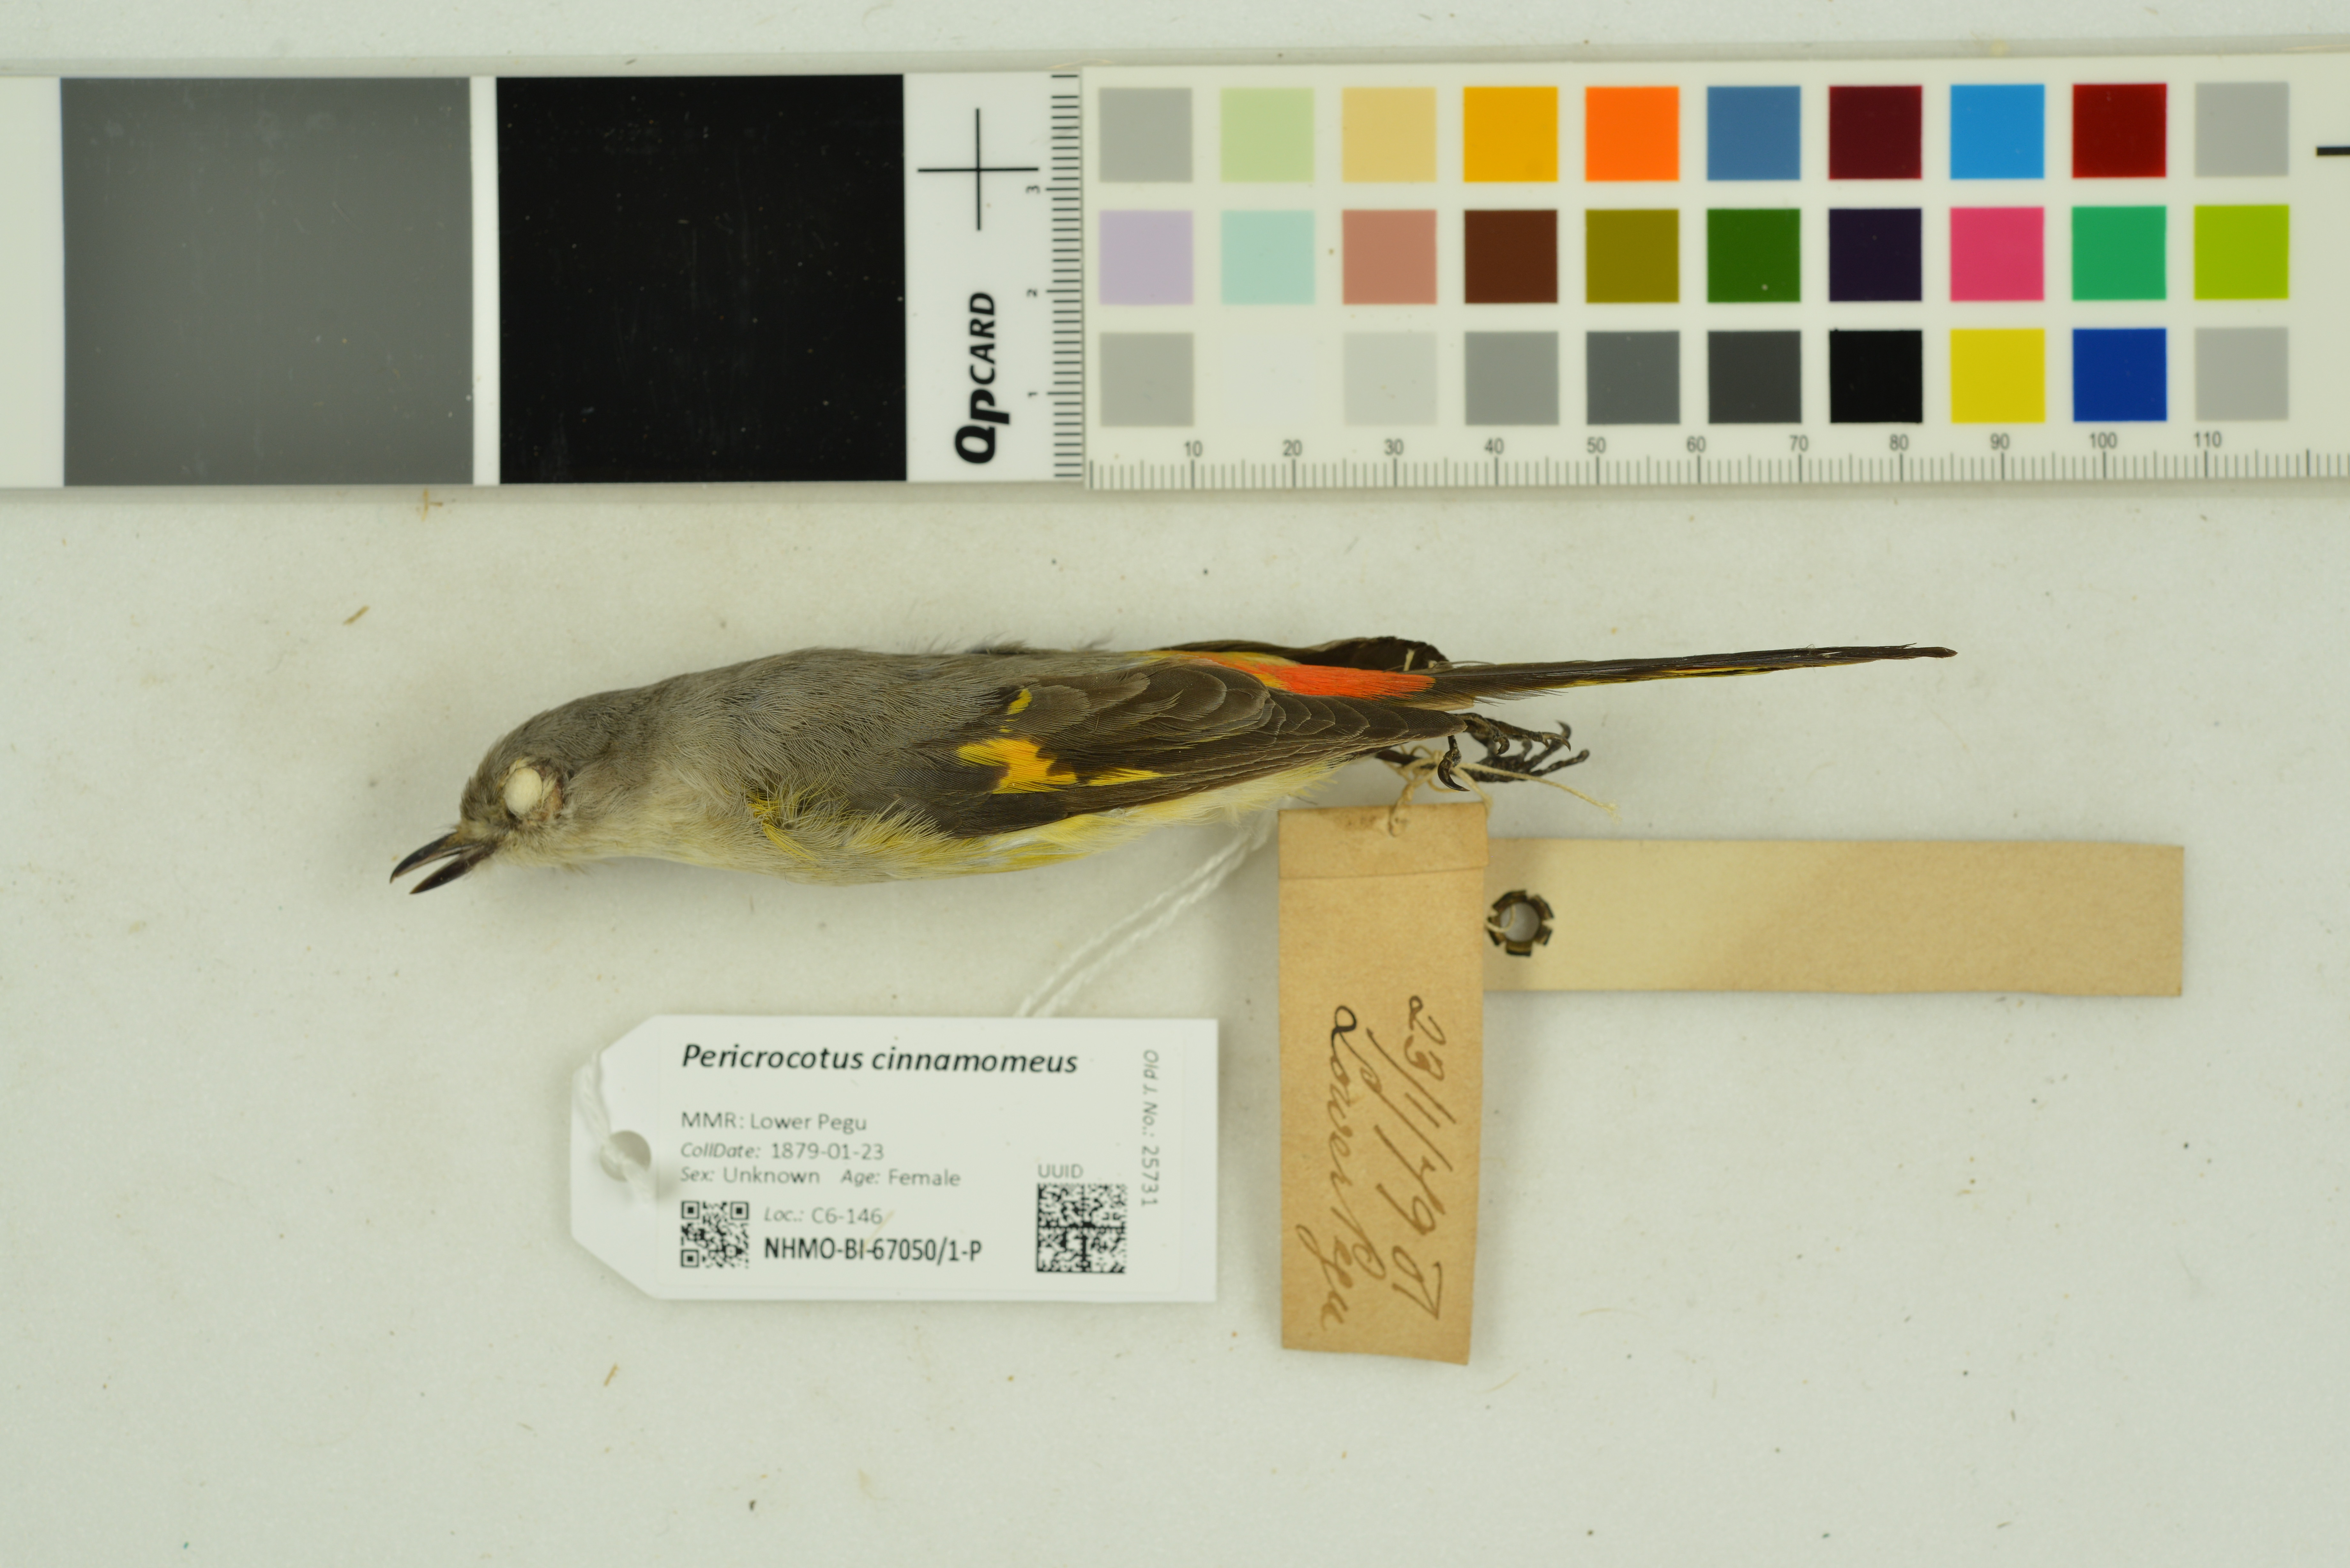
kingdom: Animalia
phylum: Chordata
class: Aves
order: Passeriformes
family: Campephagidae
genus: Pericrocotus
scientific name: Pericrocotus cinnamomeus
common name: Small minivet
